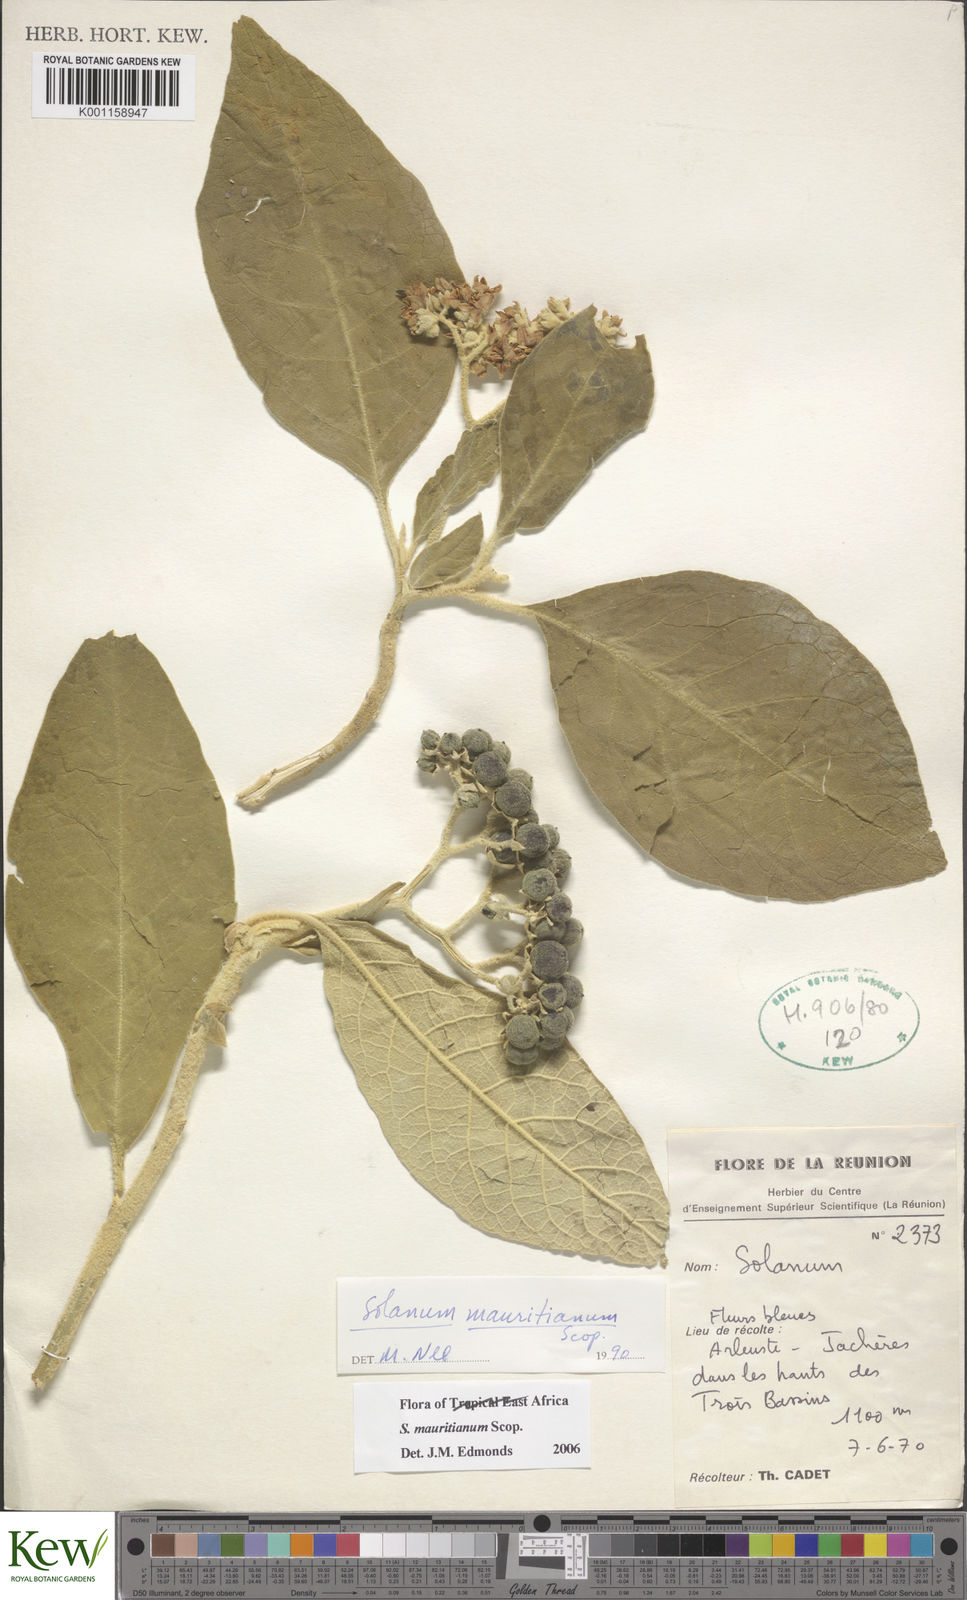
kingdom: Plantae
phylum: Tracheophyta
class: Magnoliopsida
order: Solanales
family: Solanaceae
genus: Solanum
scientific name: Solanum mauritianum
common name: Earleaf nightshade
